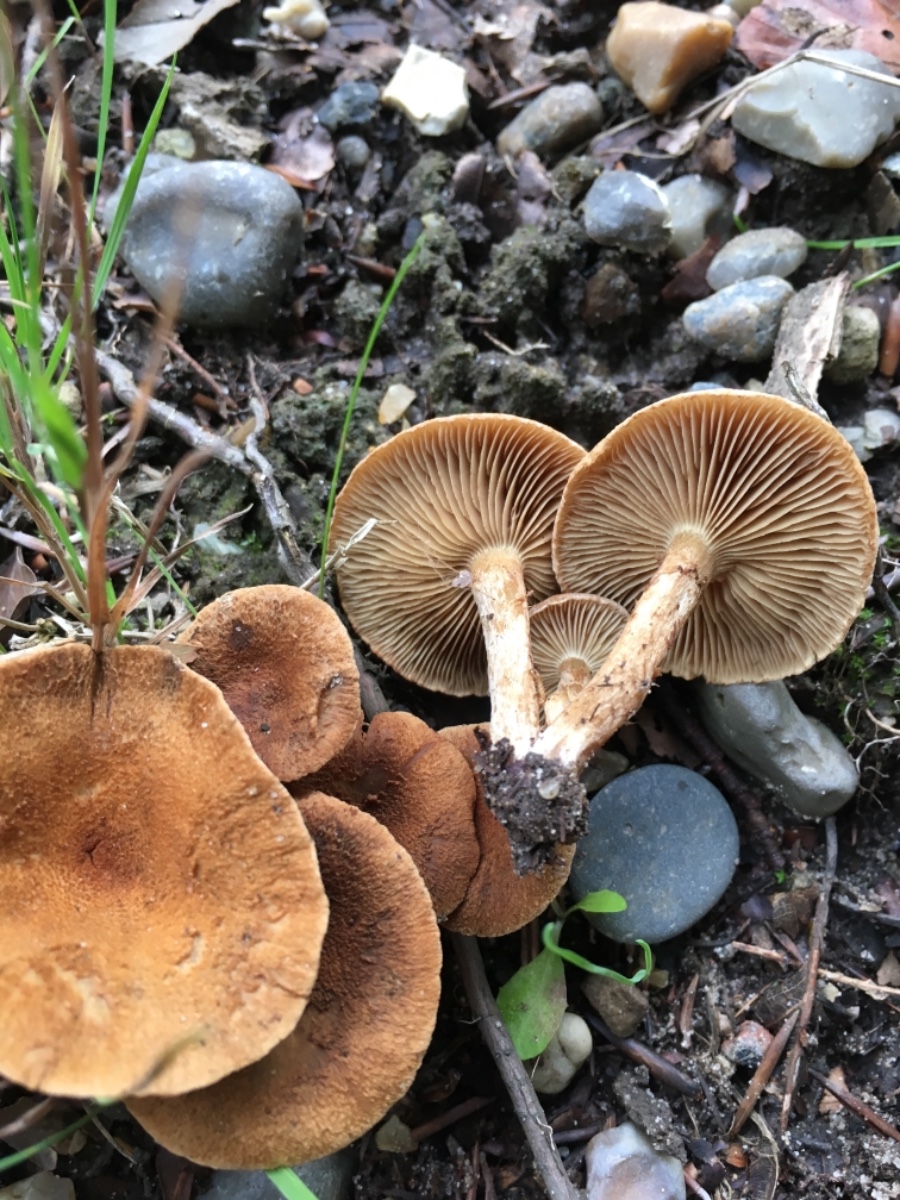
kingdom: Fungi
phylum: Basidiomycota
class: Agaricomycetes
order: Agaricales
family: Inocybaceae
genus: Inocybe
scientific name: Inocybe
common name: trævlhat
